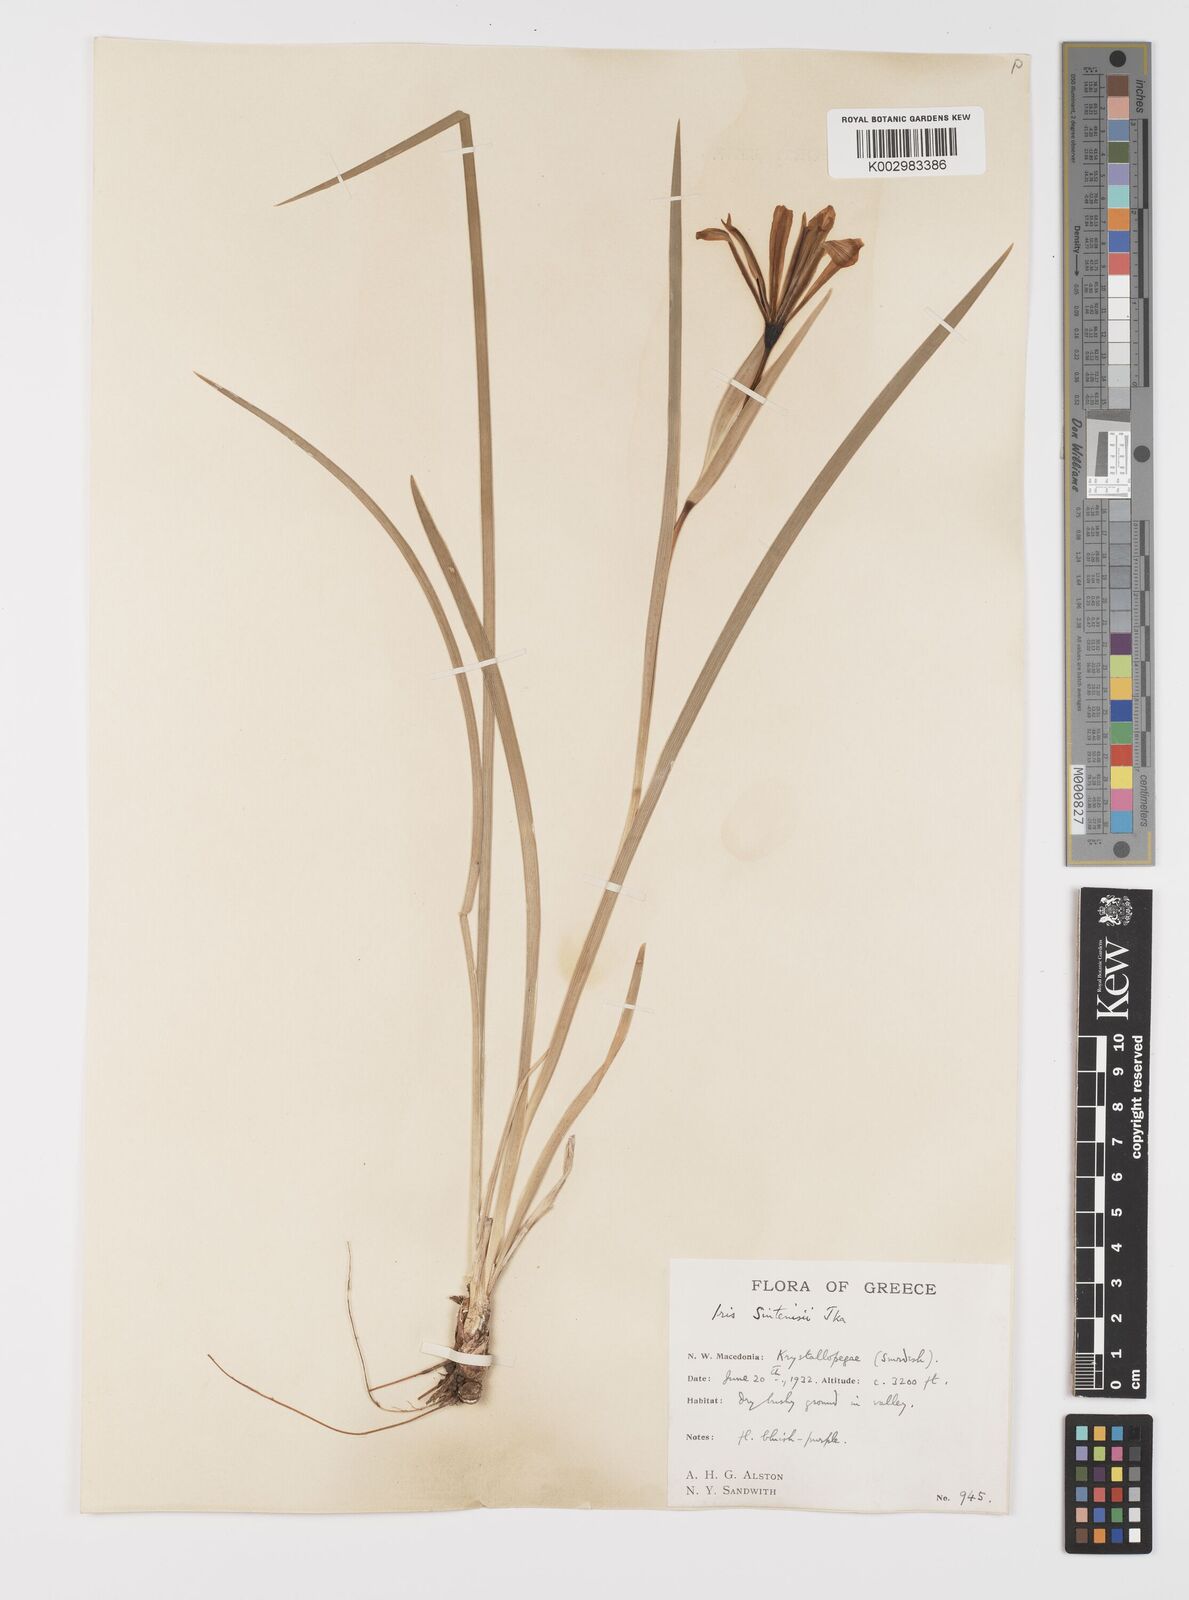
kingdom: Plantae
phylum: Tracheophyta
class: Liliopsida
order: Asparagales
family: Iridaceae
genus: Iris
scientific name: Iris sintenisii
